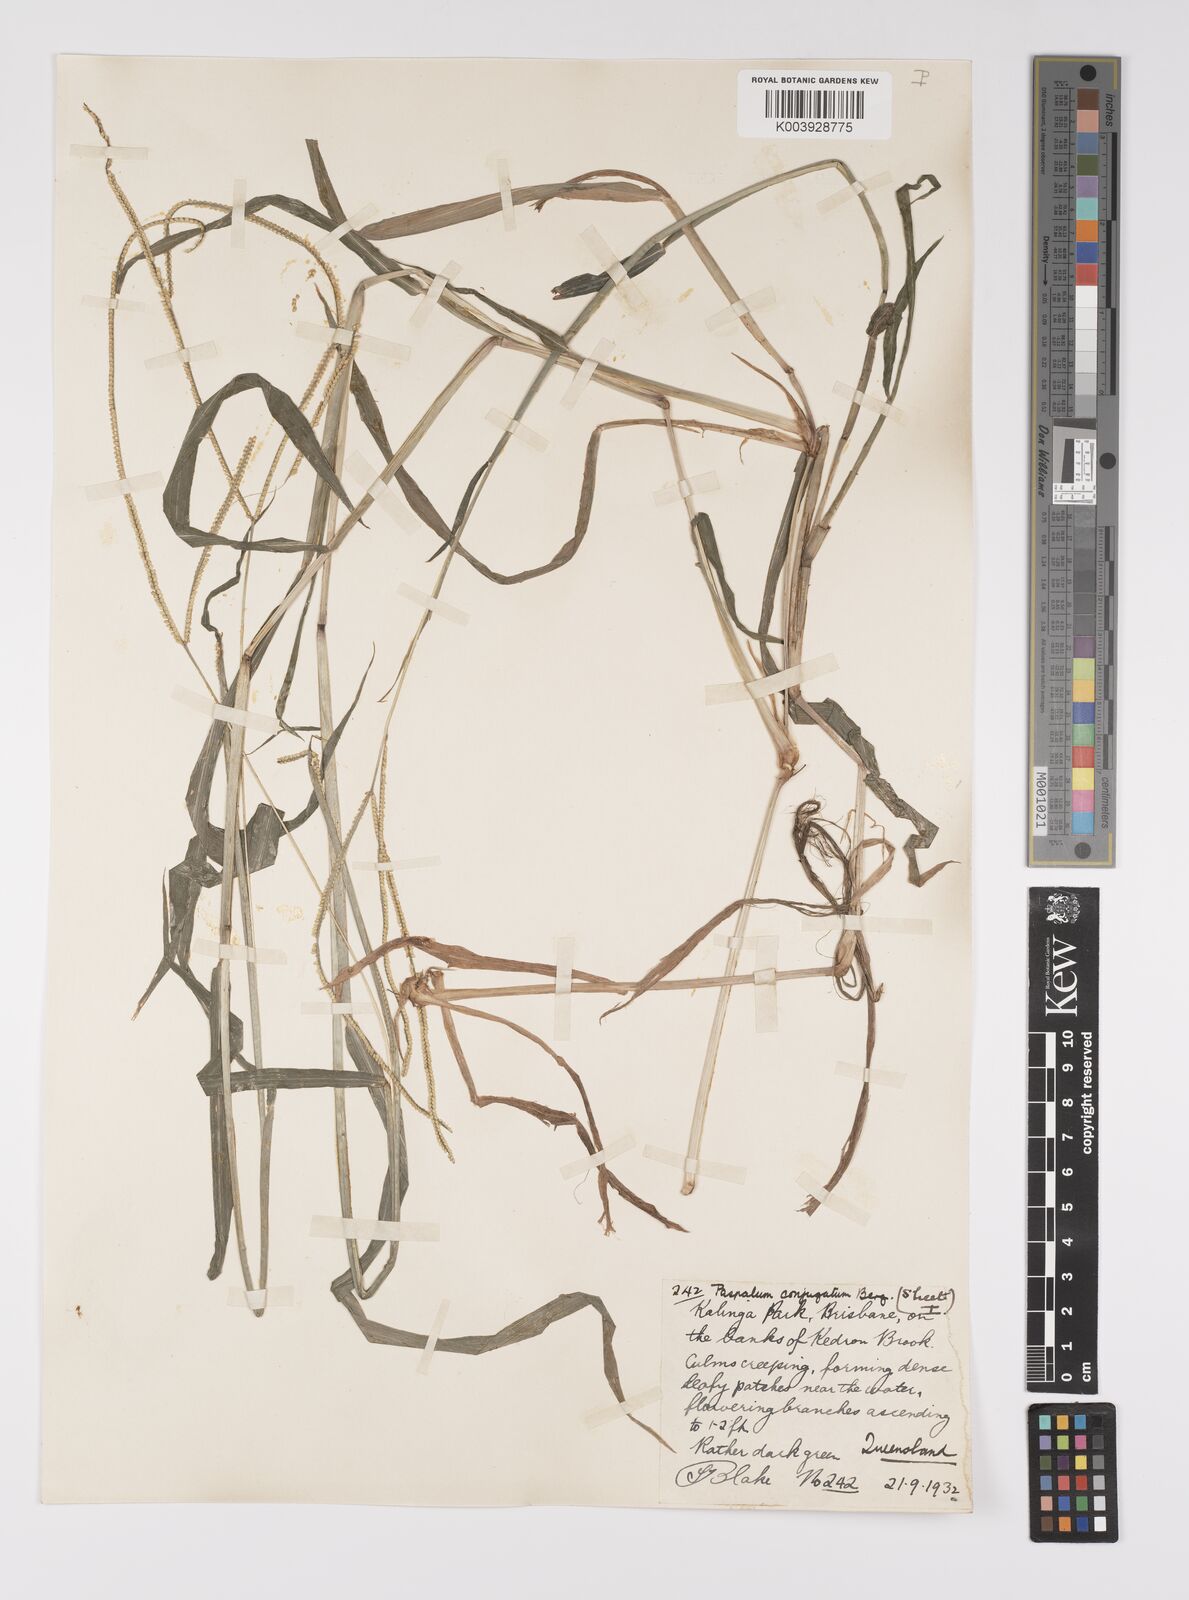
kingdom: Plantae
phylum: Tracheophyta
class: Liliopsida
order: Poales
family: Poaceae
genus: Paspalum
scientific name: Paspalum conjugatum
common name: Hilograss
